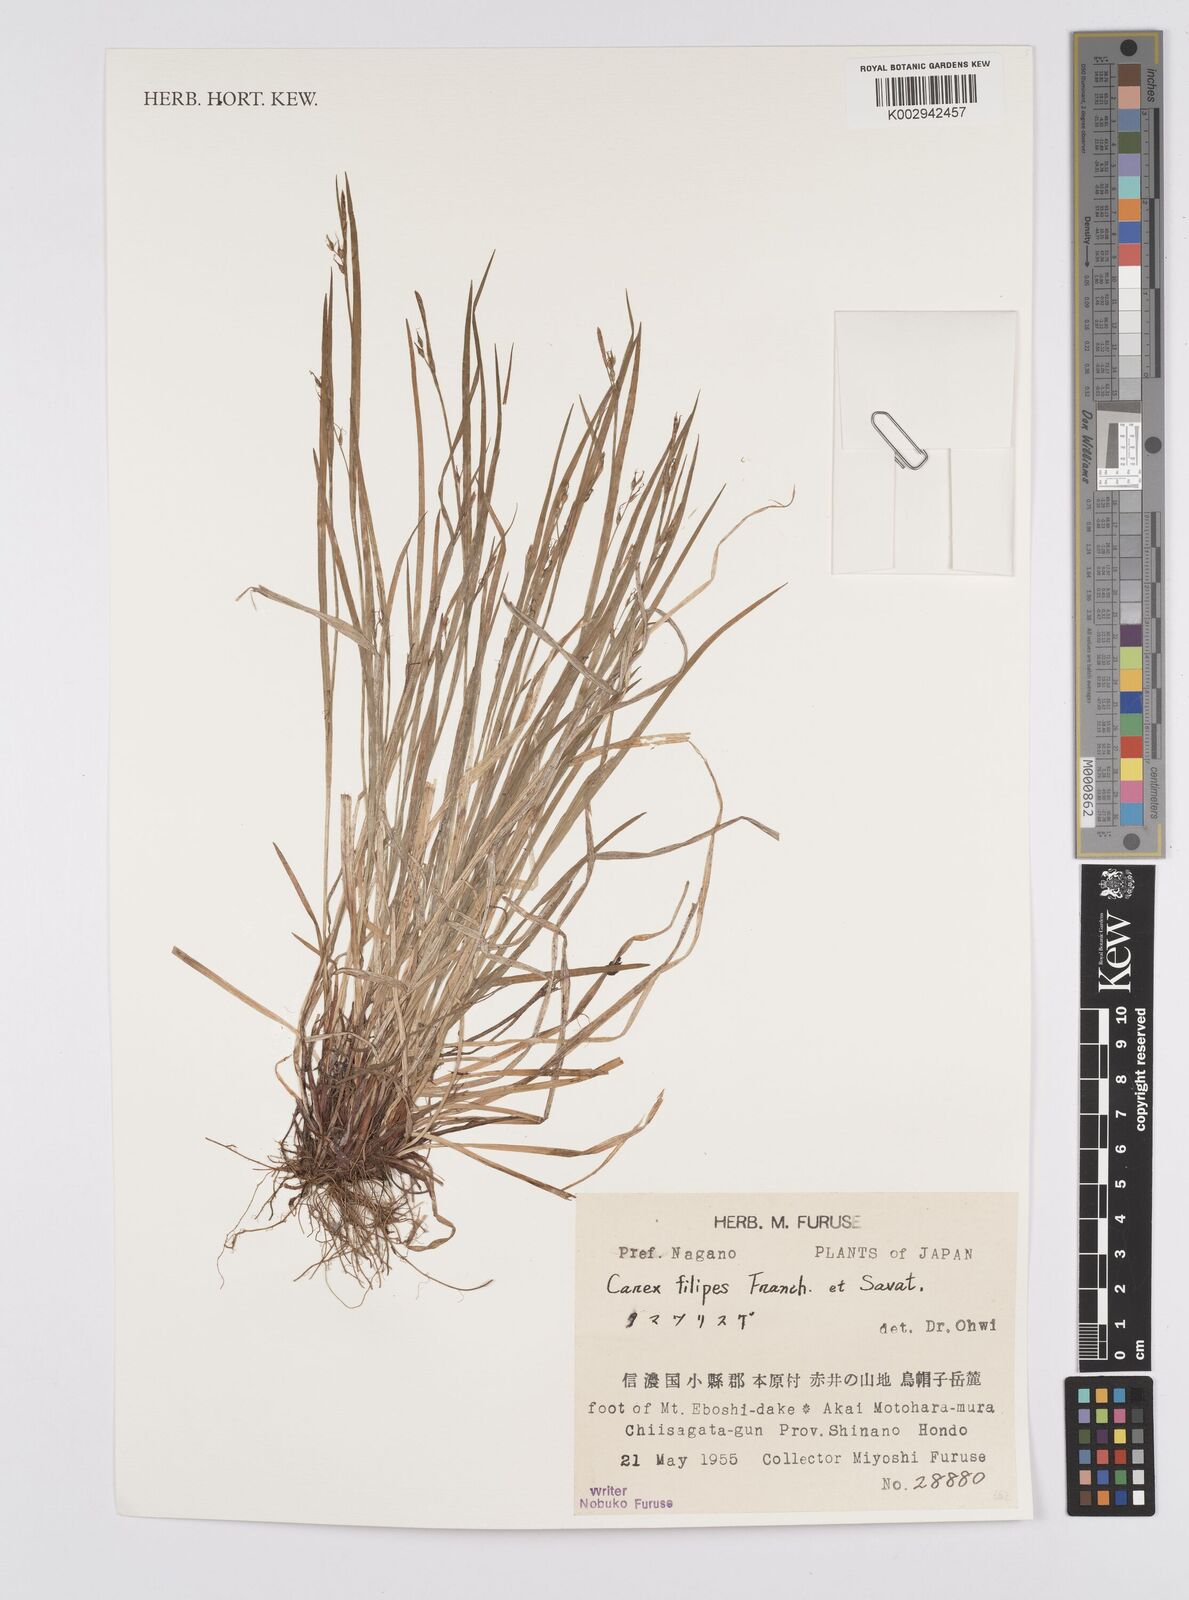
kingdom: Plantae
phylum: Tracheophyta
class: Liliopsida
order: Poales
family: Cyperaceae
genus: Carex
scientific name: Carex filipes
